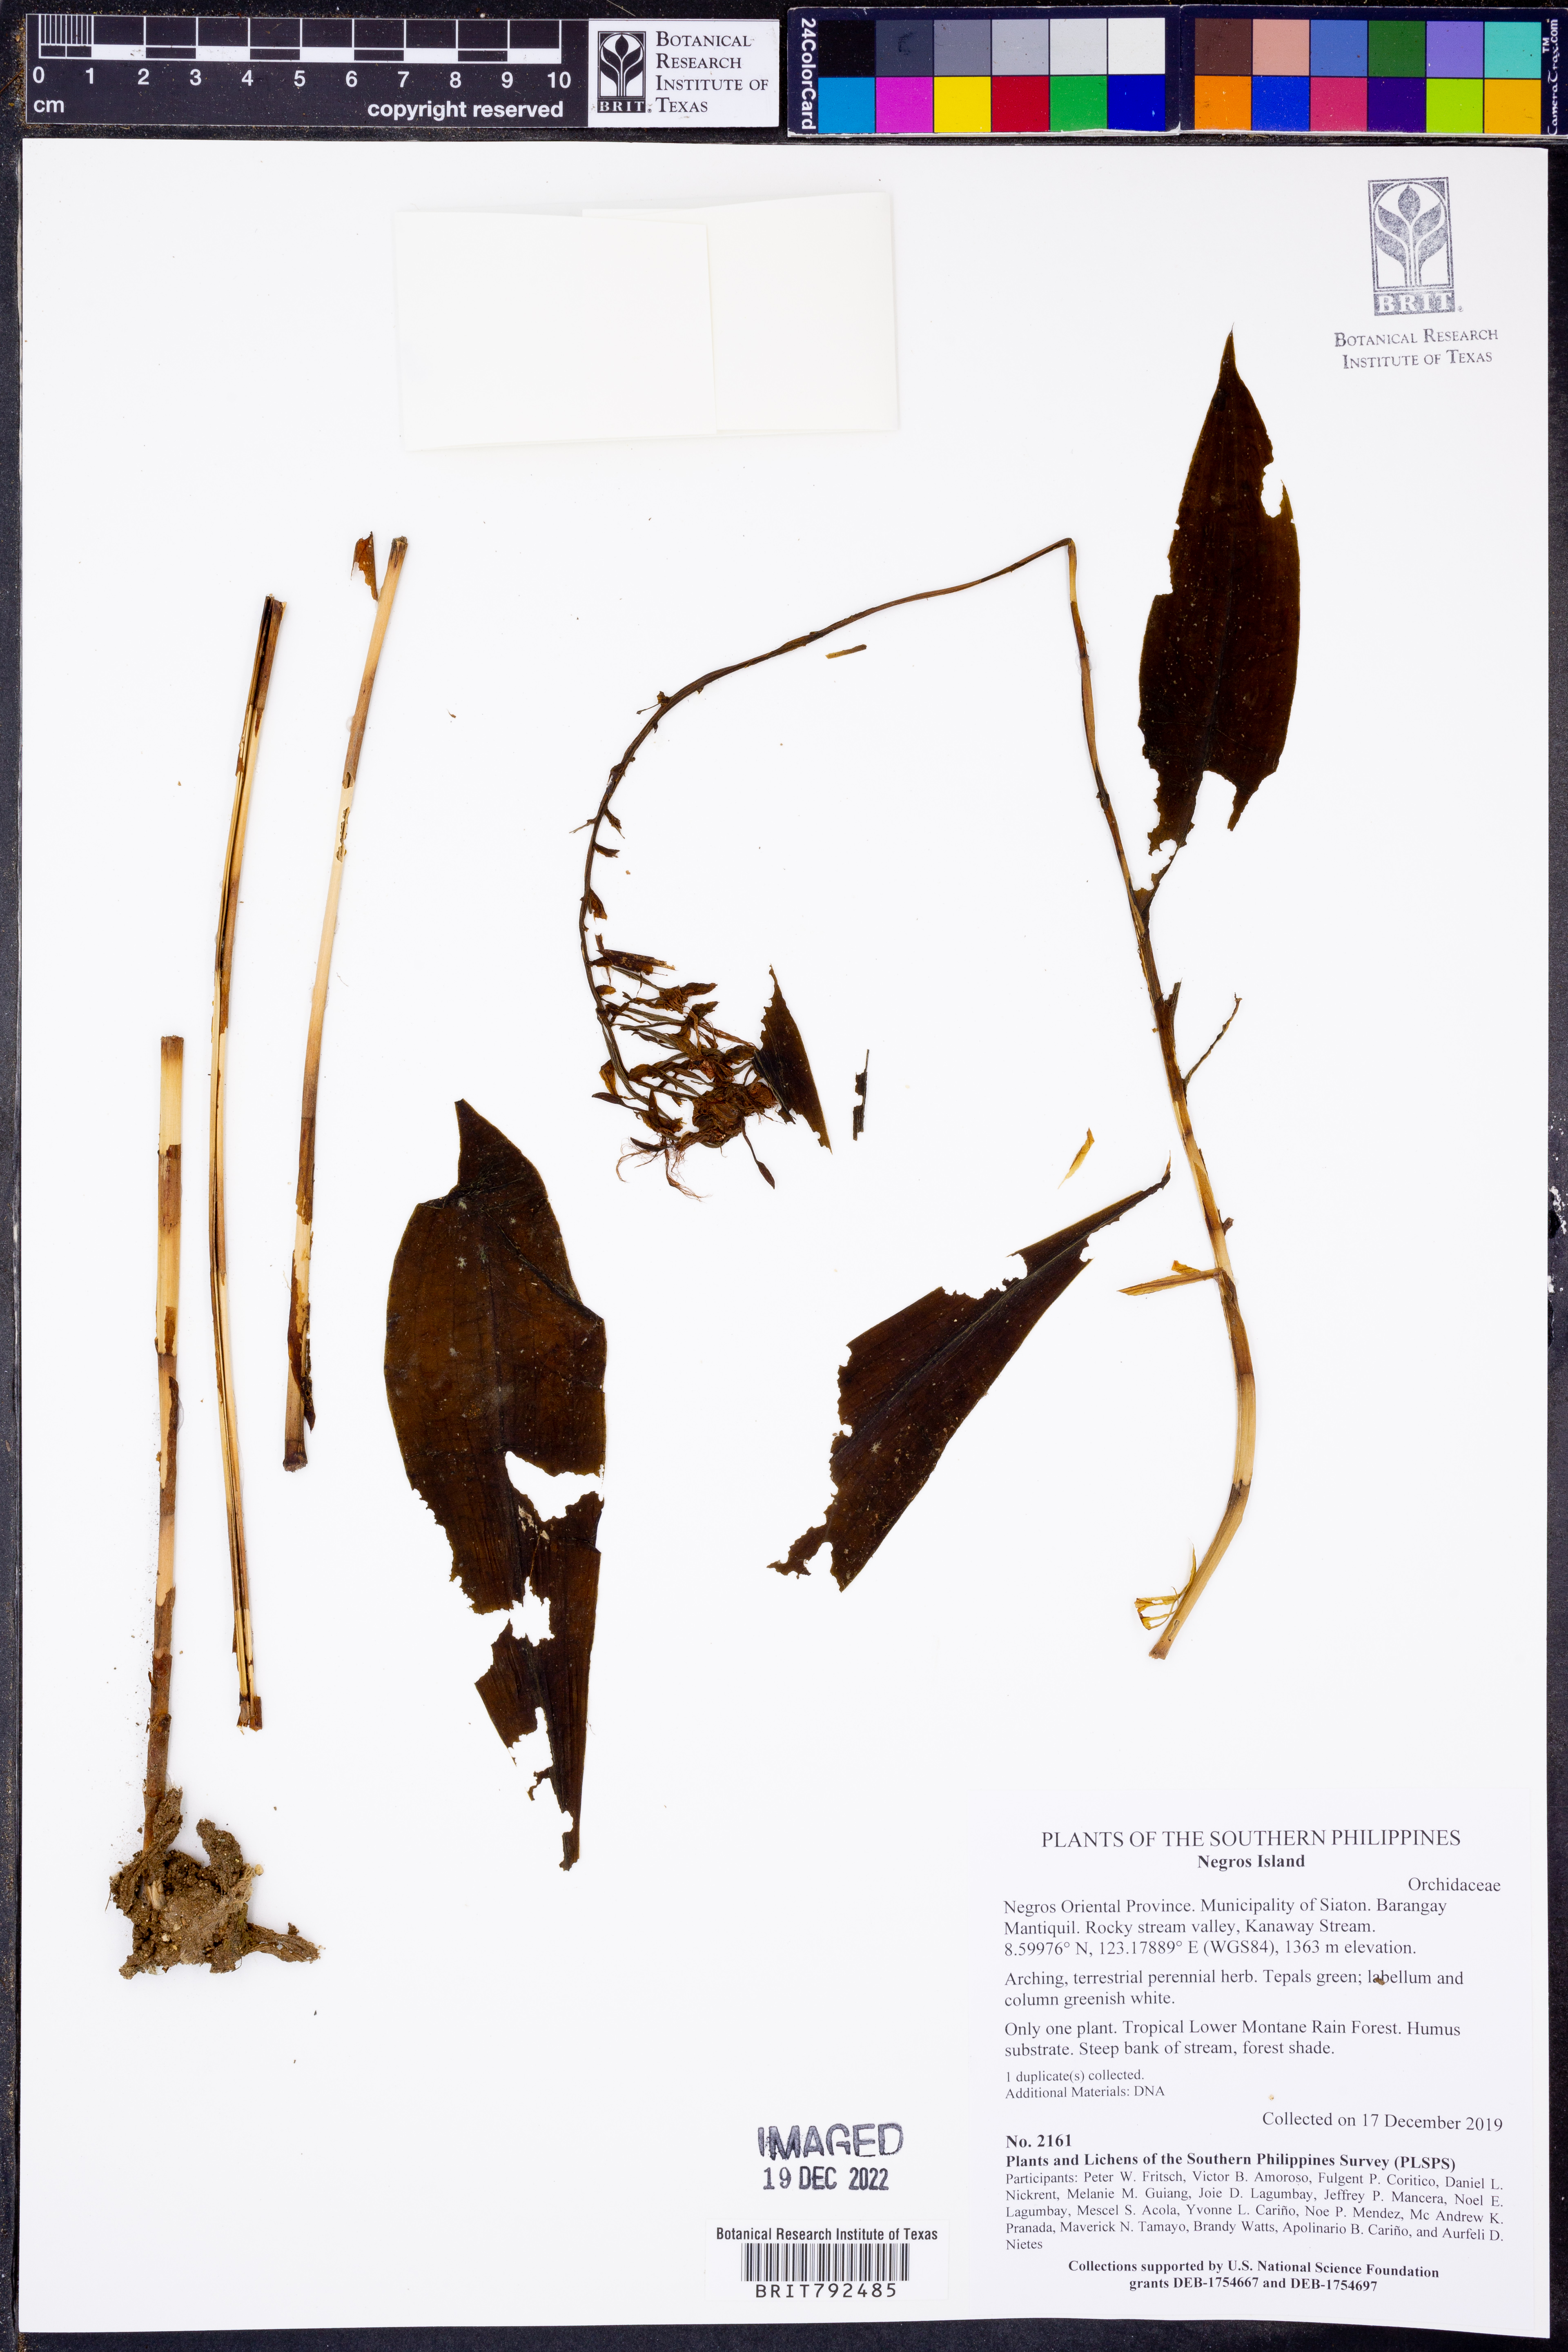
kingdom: Plantae
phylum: Tracheophyta
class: Liliopsida
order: Asparagales
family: Orchidaceae
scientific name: Orchidaceae
